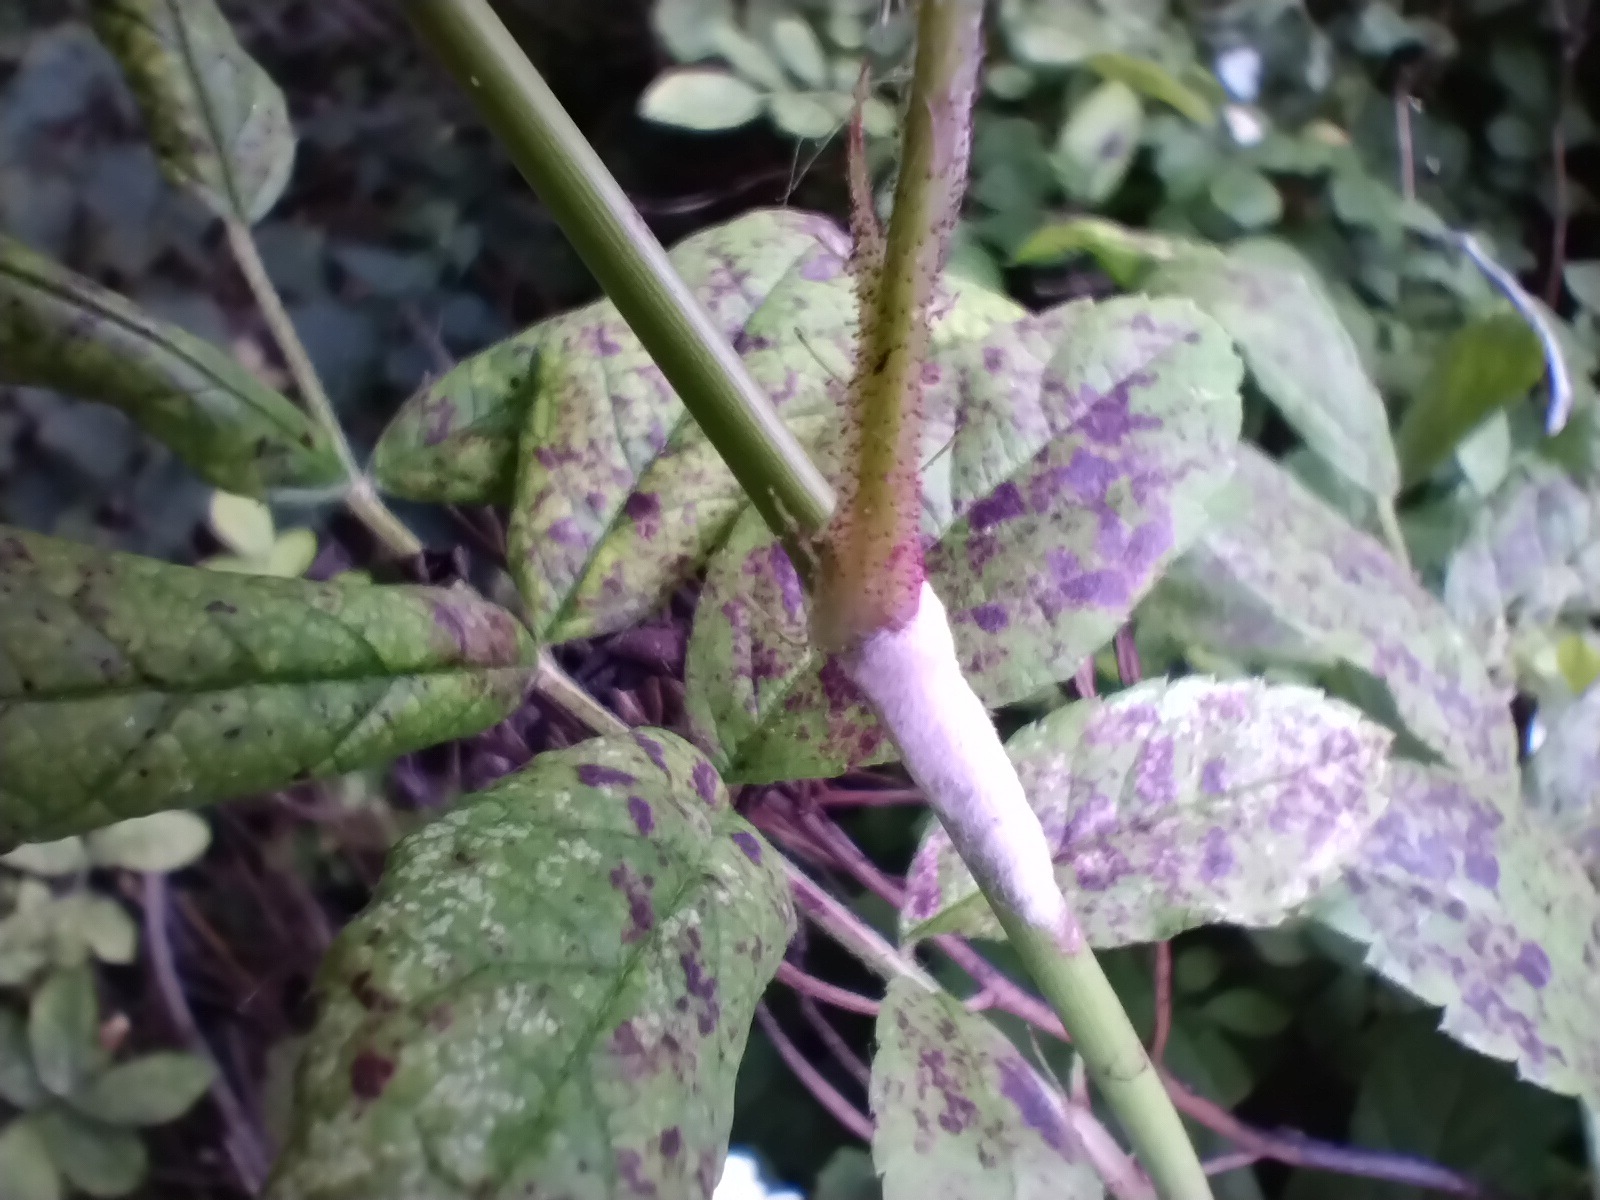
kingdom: Fungi
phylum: Ascomycota
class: Leotiomycetes
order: Helotiales
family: Erysiphaceae
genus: Podosphaera
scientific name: Podosphaera pannosa
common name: Rose mildew
